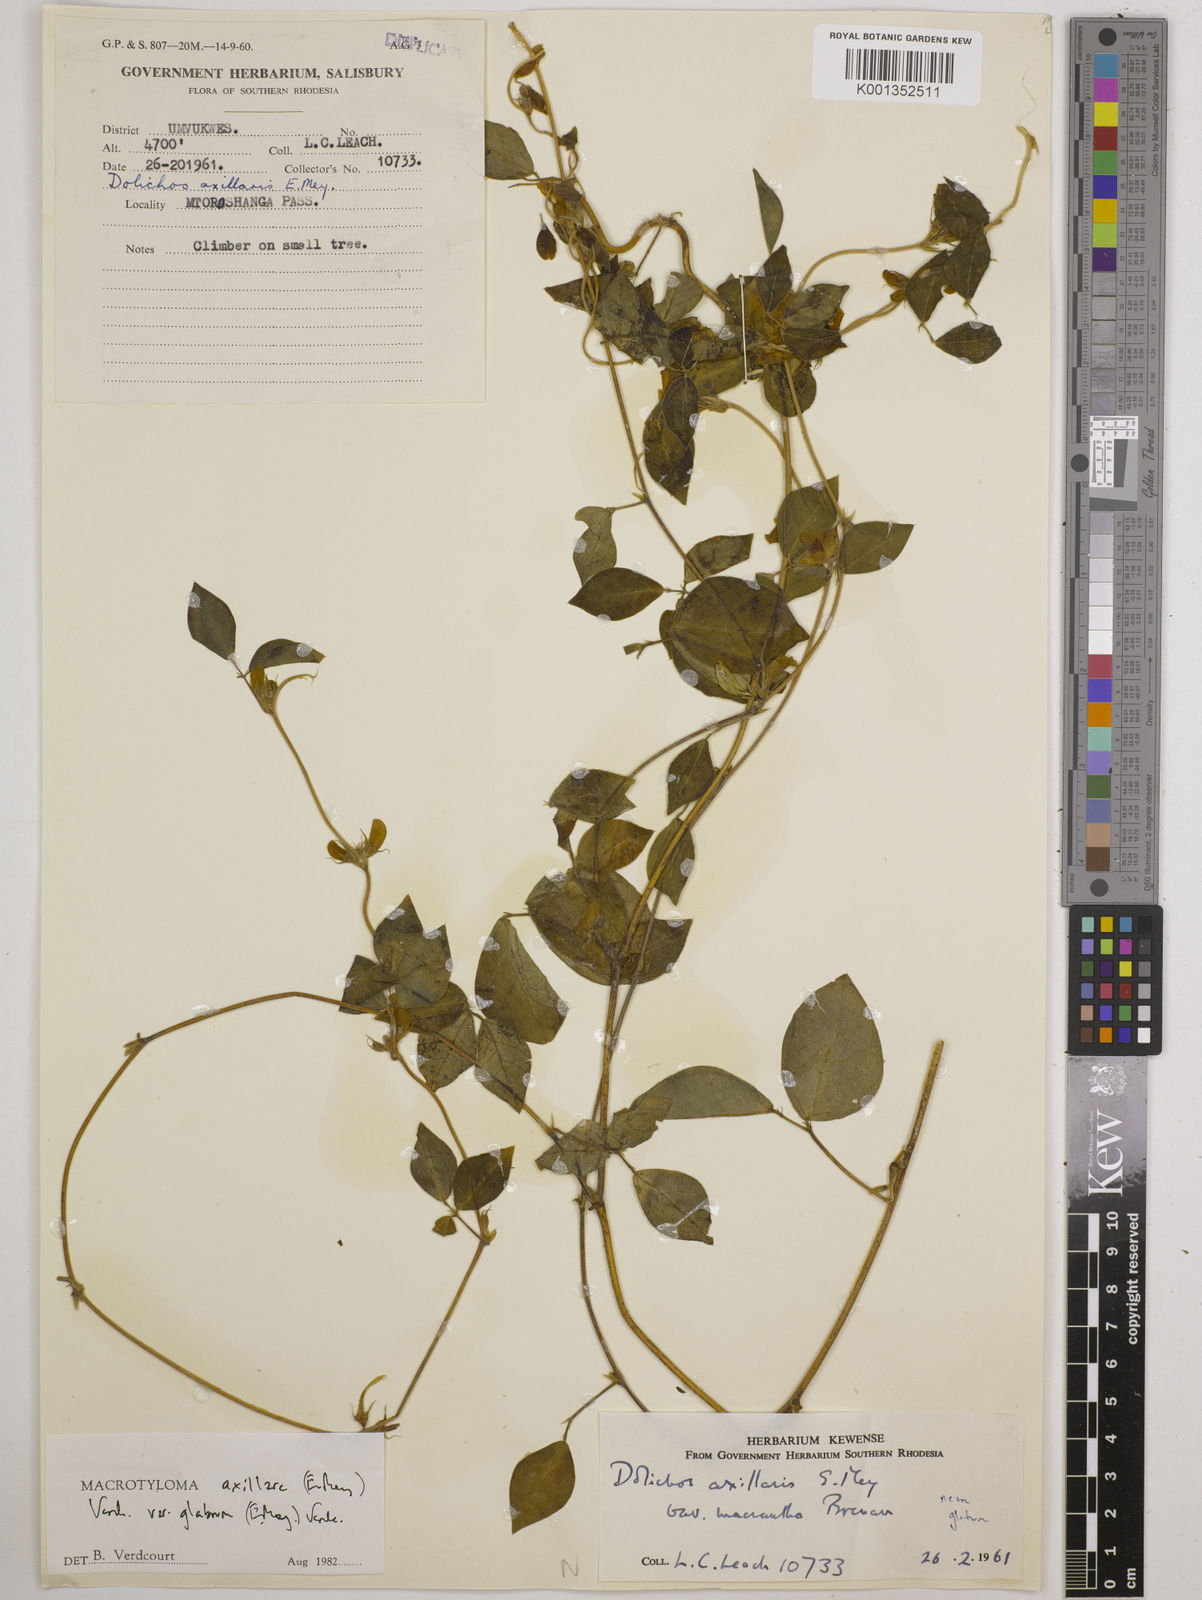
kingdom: Plantae
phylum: Tracheophyta
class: Magnoliopsida
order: Fabales
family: Fabaceae
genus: Macrotyloma
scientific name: Macrotyloma
